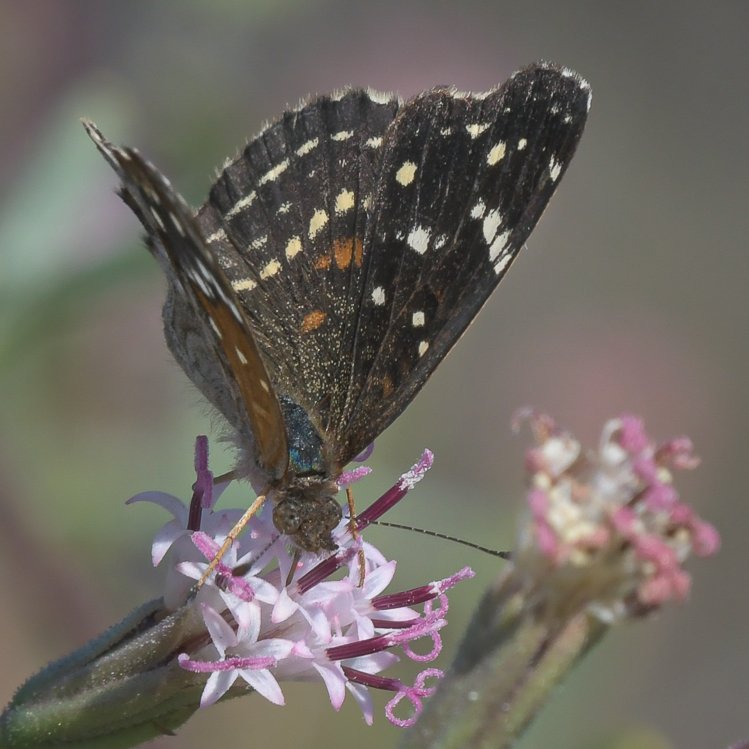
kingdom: Animalia
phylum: Arthropoda
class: Insecta
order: Lepidoptera
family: Pieridae
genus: Ascia
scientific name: Ascia monuste
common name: Great Southern White
